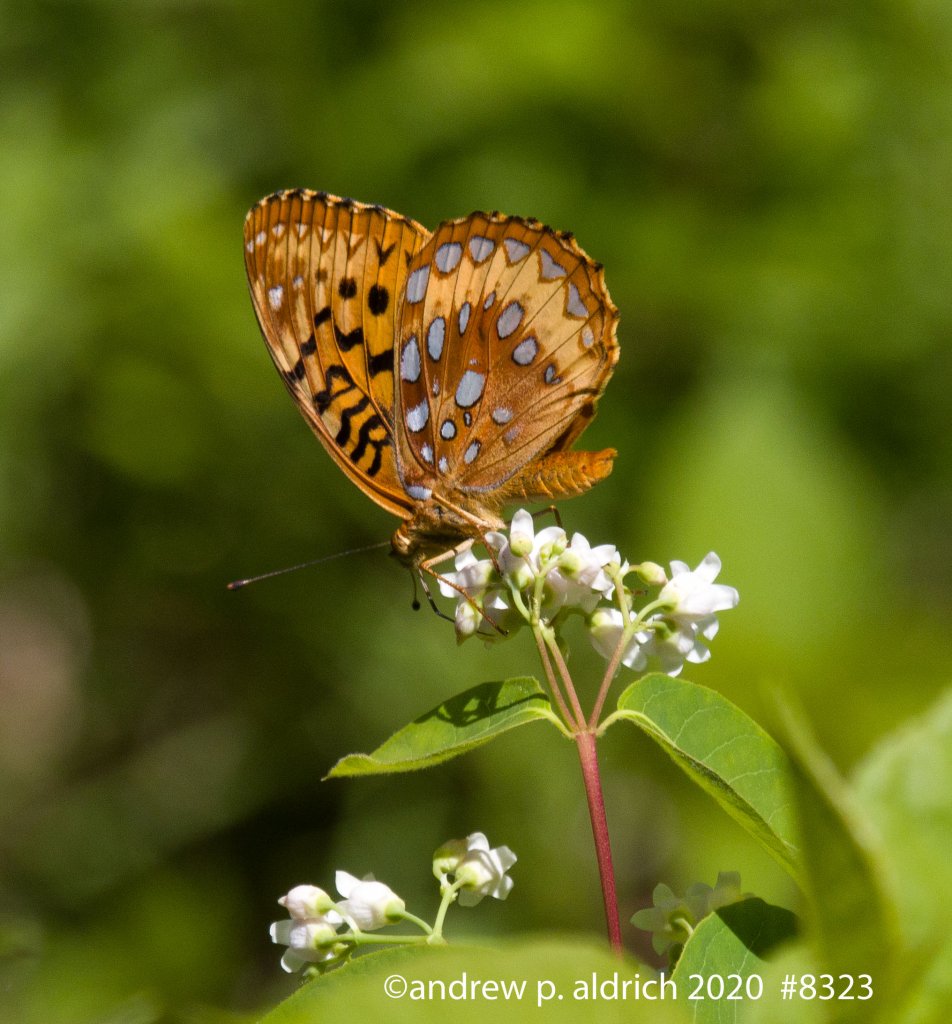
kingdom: Animalia
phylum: Arthropoda
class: Insecta
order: Lepidoptera
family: Nymphalidae
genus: Speyeria
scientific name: Speyeria cybele
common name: Great Spangled Fritillary
